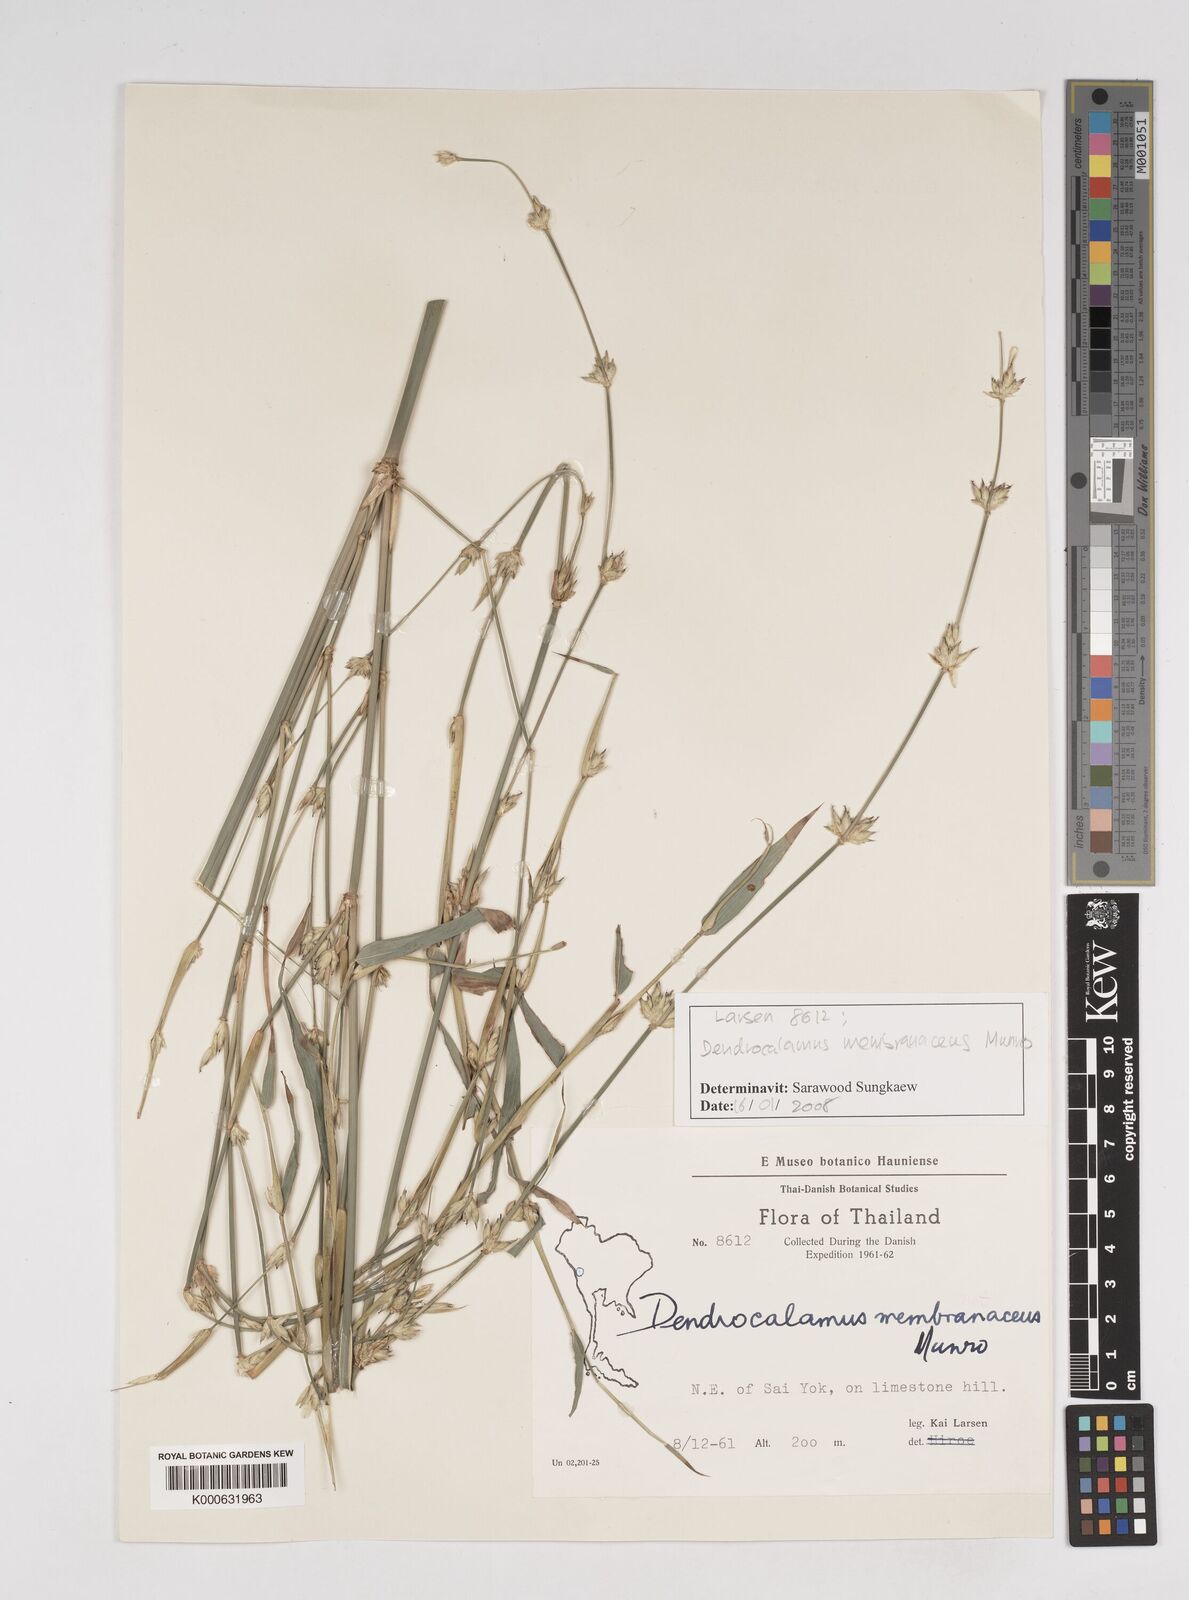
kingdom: Plantae
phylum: Tracheophyta
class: Liliopsida
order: Poales
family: Poaceae
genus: Dendrocalamus
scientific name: Dendrocalamus membranaceus
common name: White bamboo
